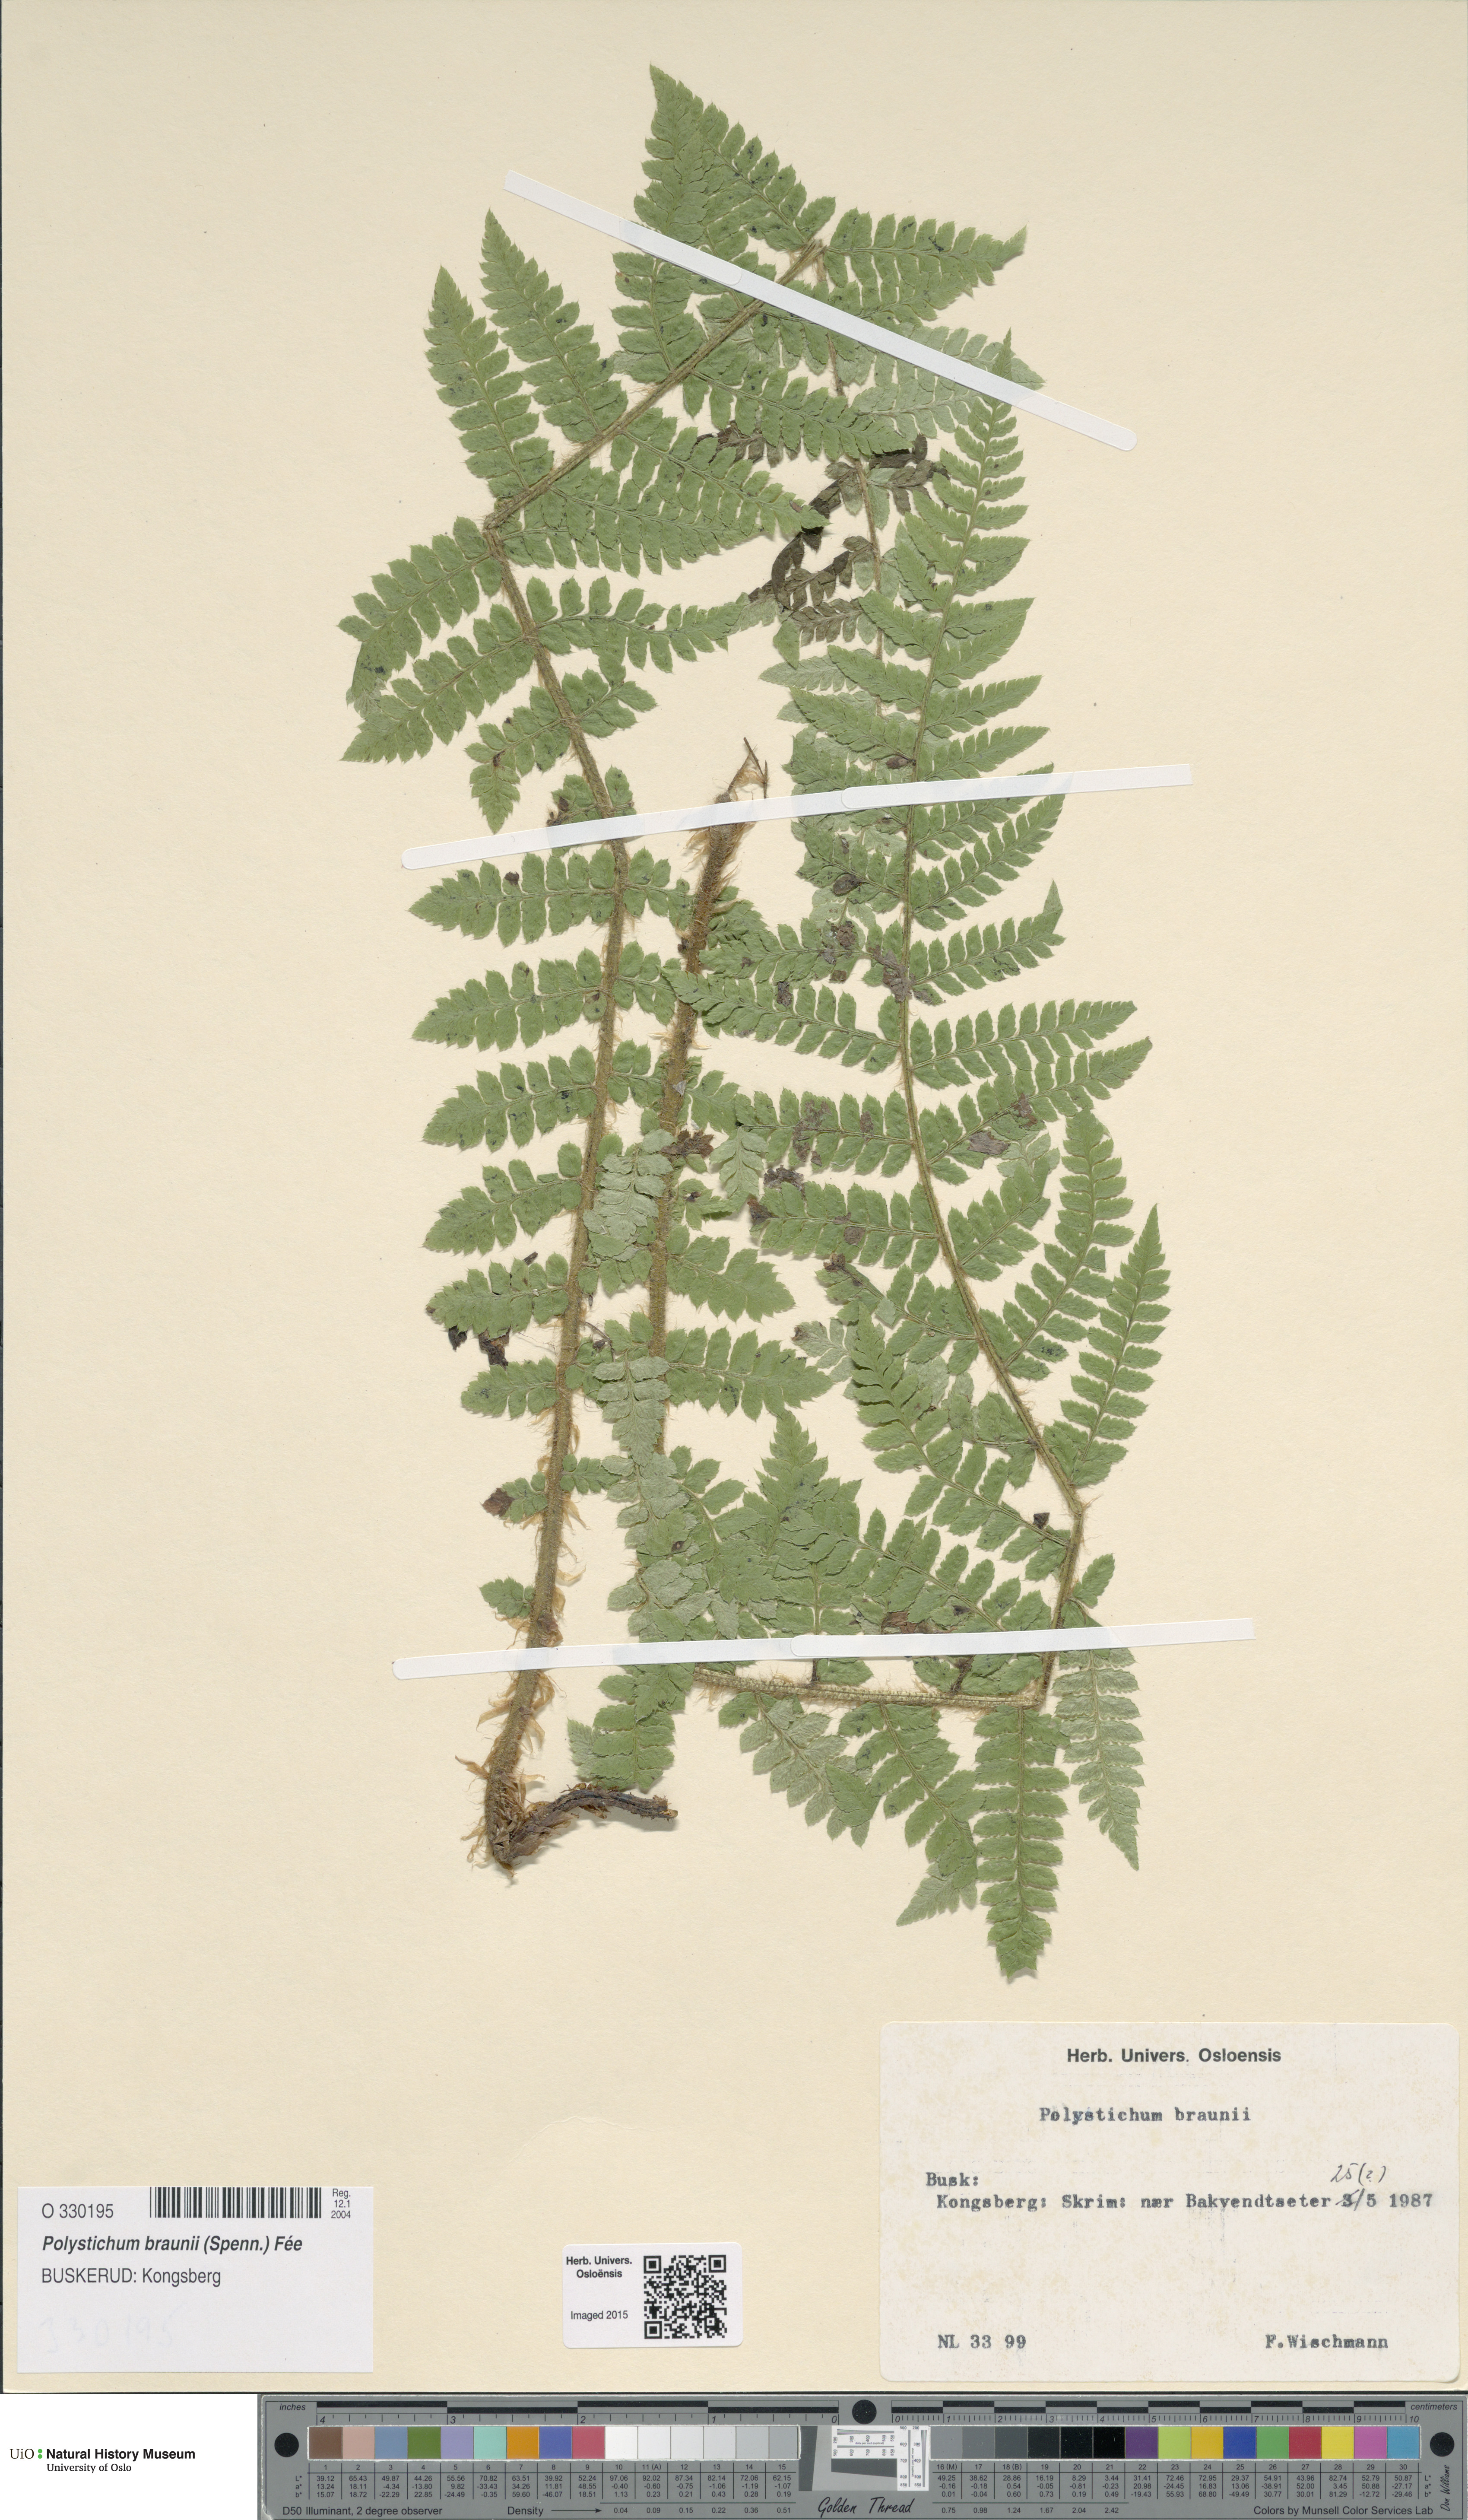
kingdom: Plantae
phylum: Tracheophyta
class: Polypodiopsida
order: Polypodiales
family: Dryopteridaceae
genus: Polystichum
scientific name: Polystichum braunii
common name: Braun's holly fern
